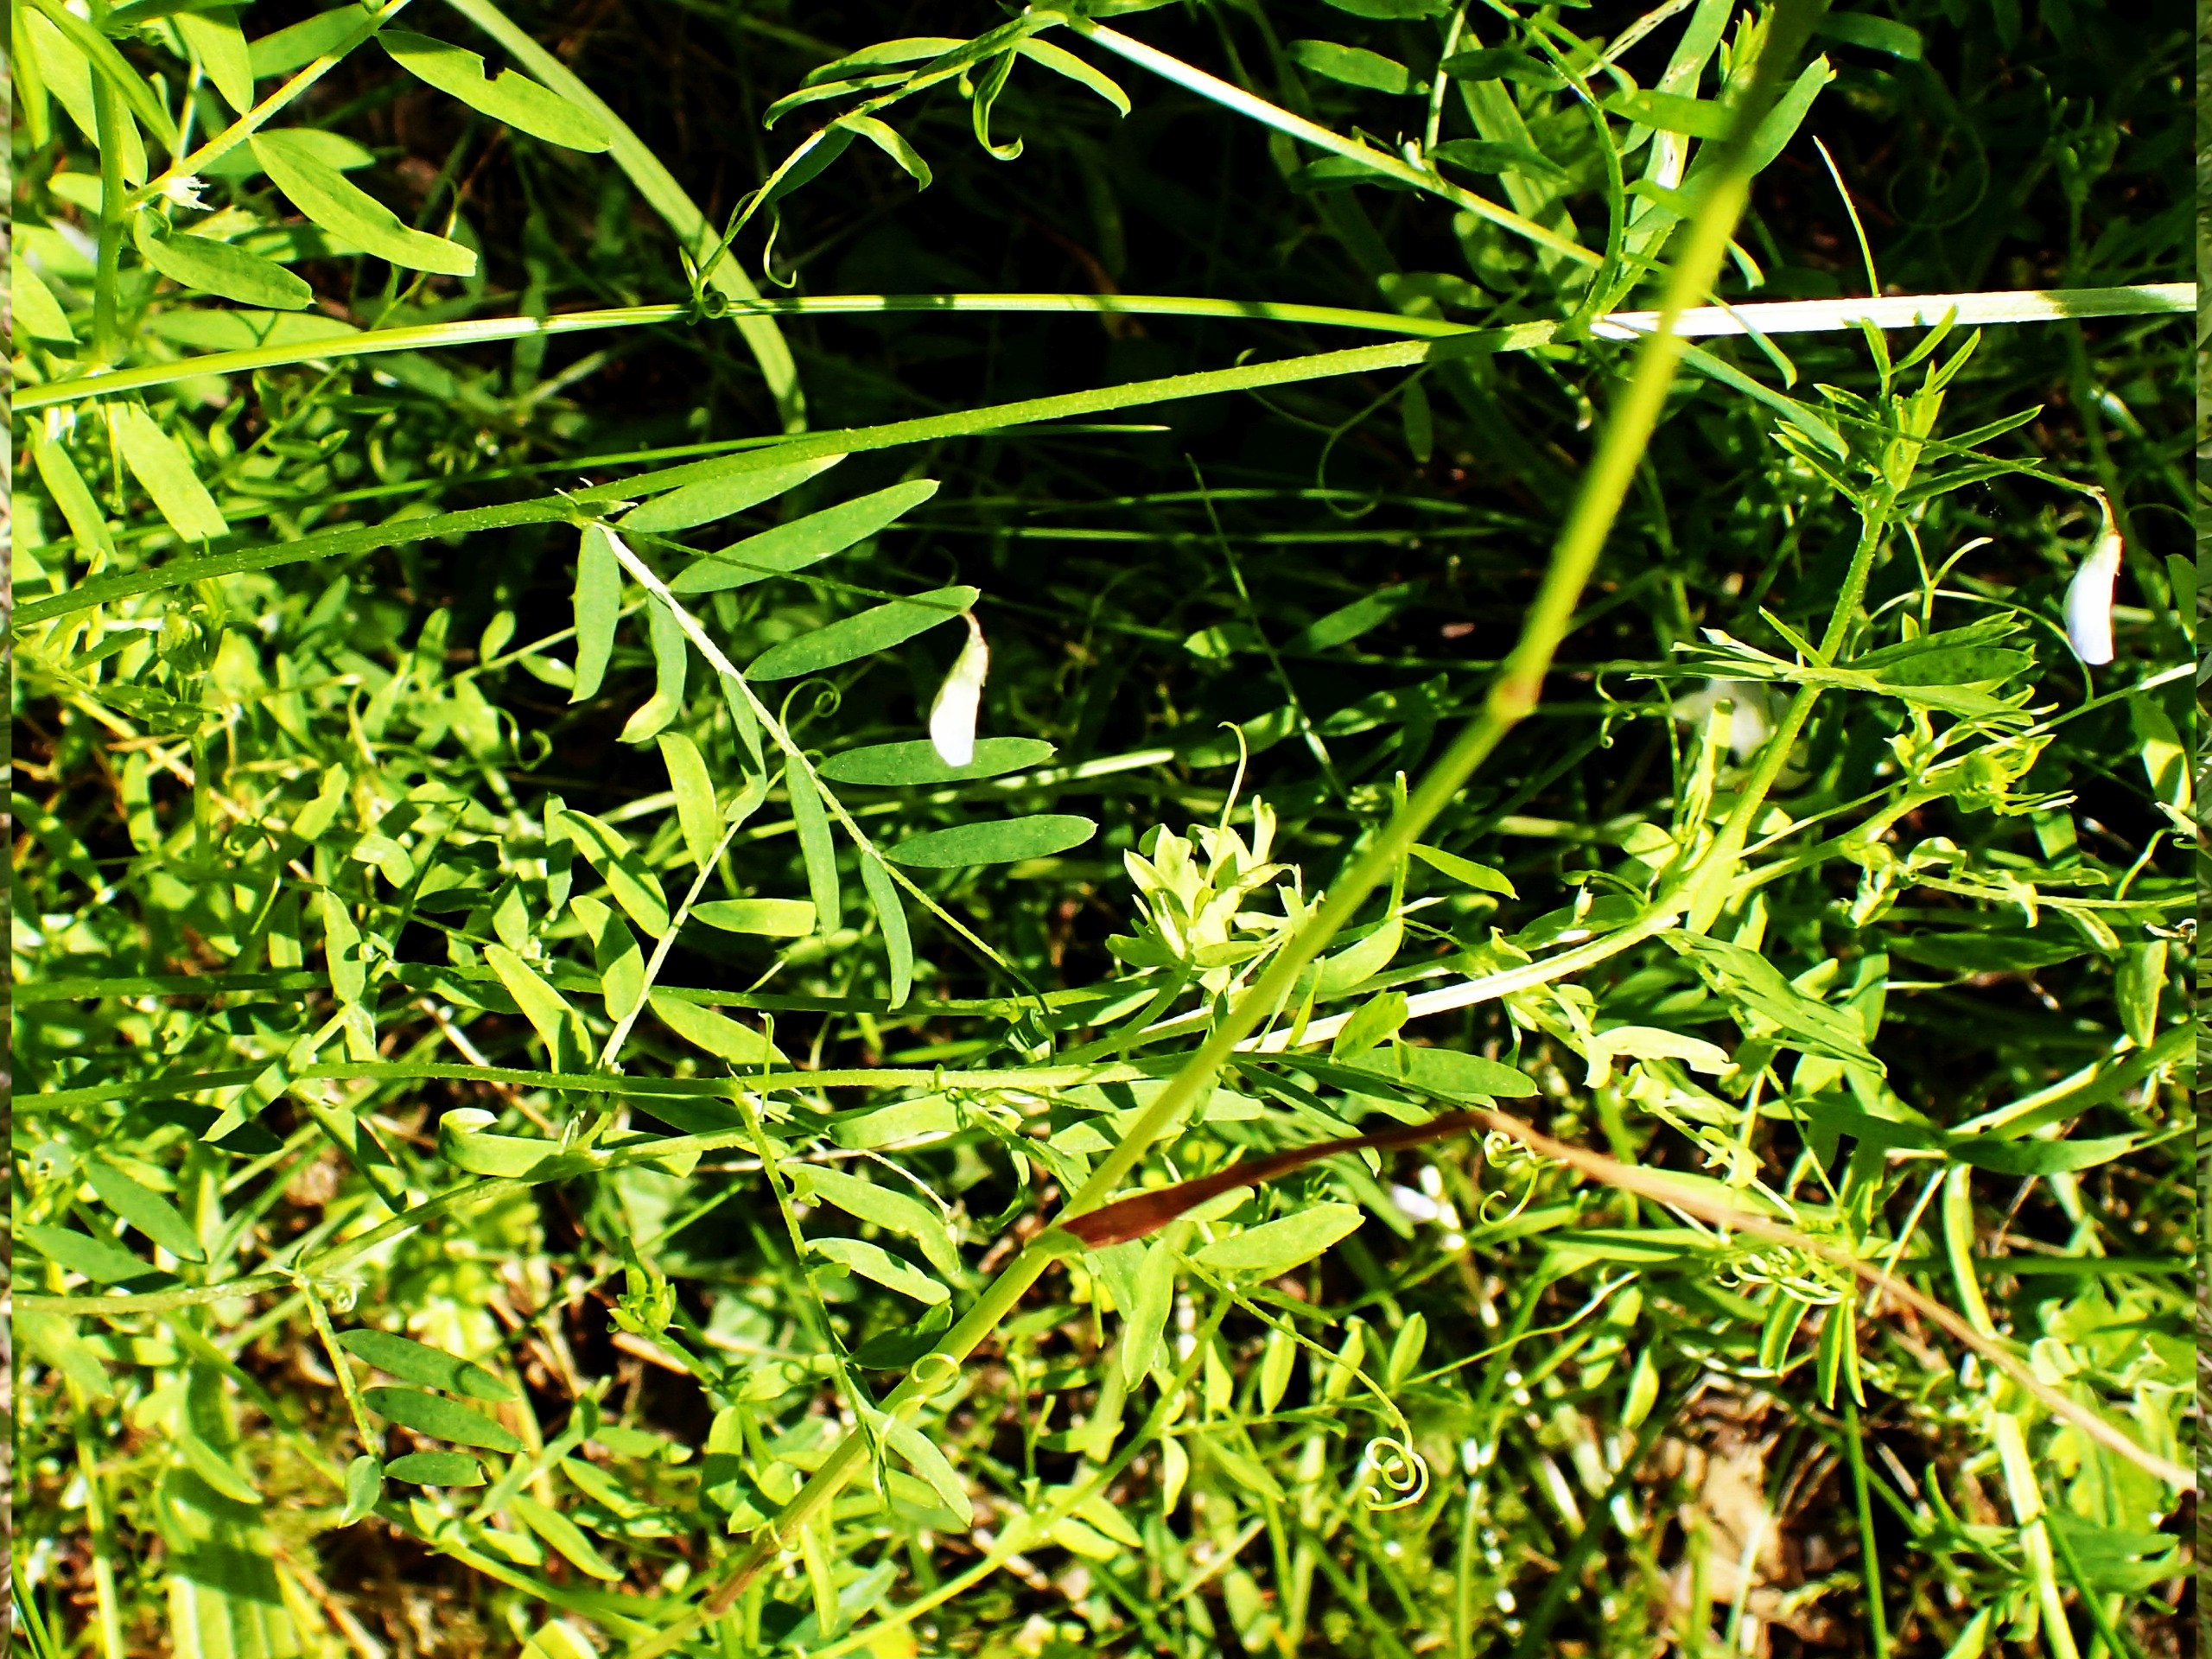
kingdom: Plantae
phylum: Tracheophyta
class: Magnoliopsida
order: Fabales
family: Fabaceae
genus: Vicia
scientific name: Vicia tetrasperma
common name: Tadder-vikke
